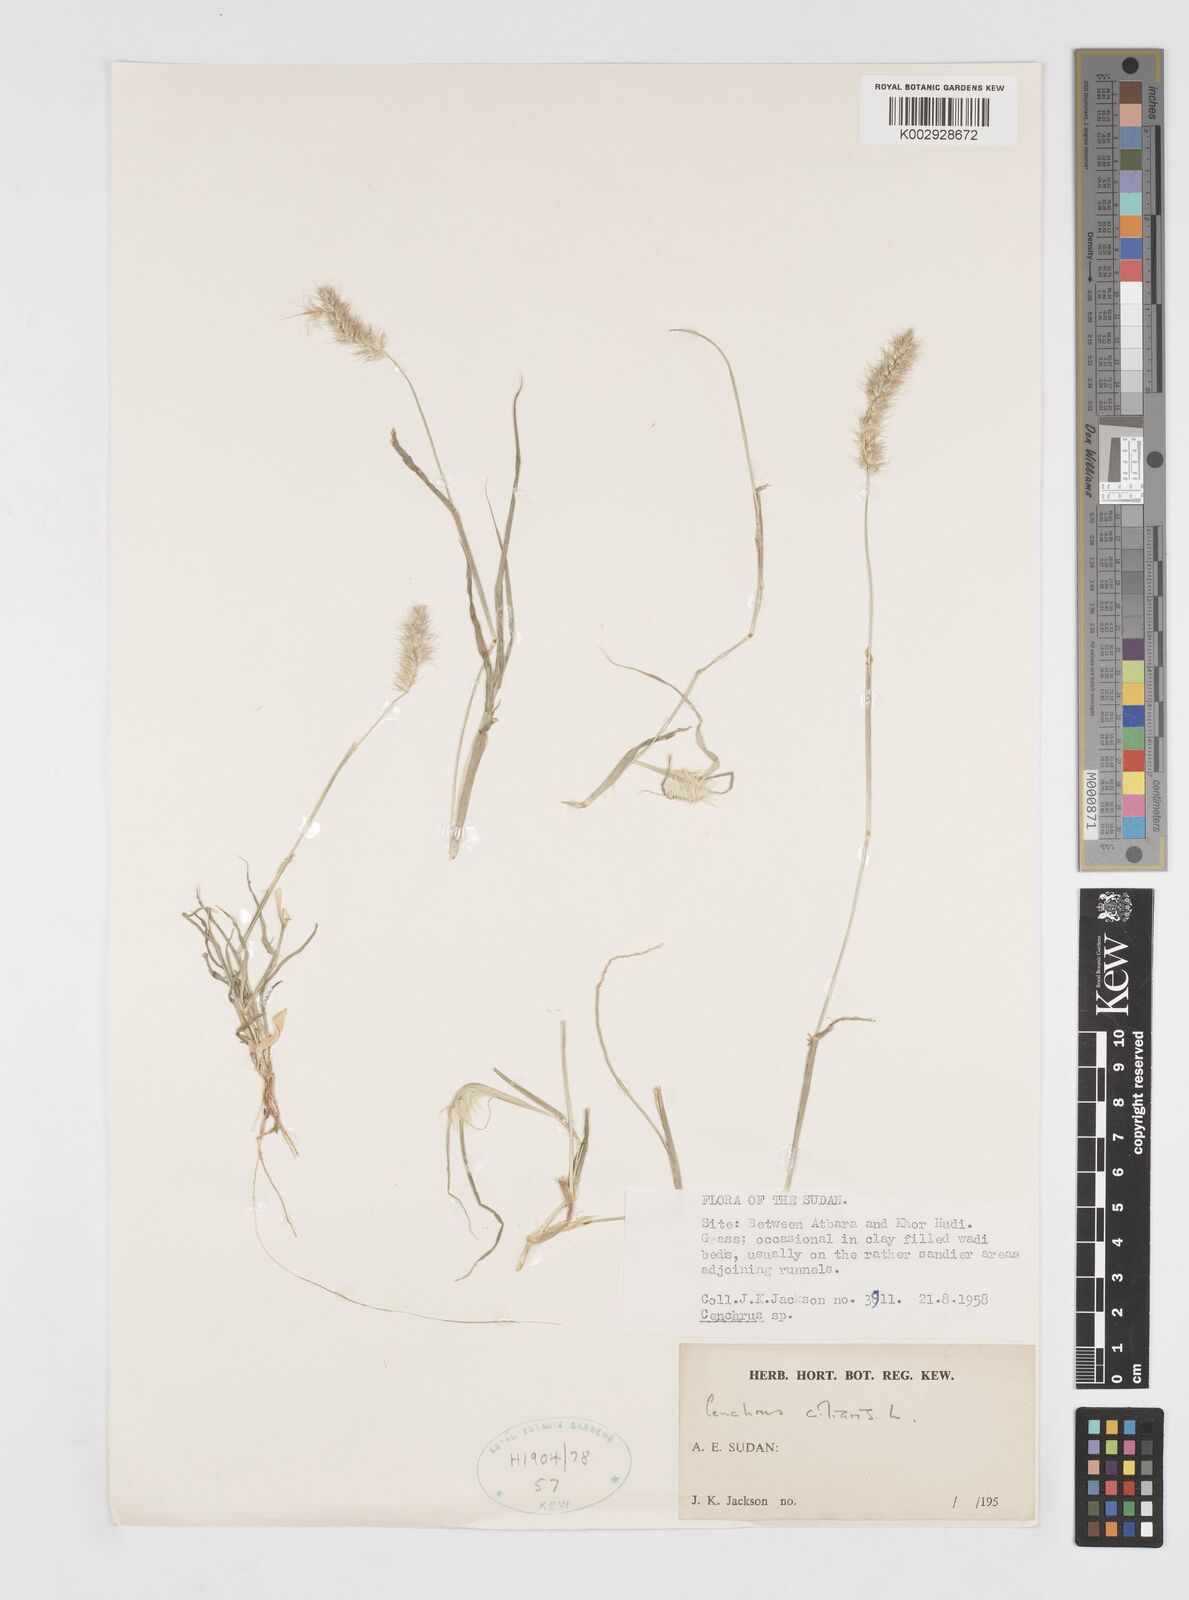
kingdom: Plantae
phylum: Tracheophyta
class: Liliopsida
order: Poales
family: Poaceae
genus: Cenchrus
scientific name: Cenchrus ciliaris
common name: Buffelgrass
